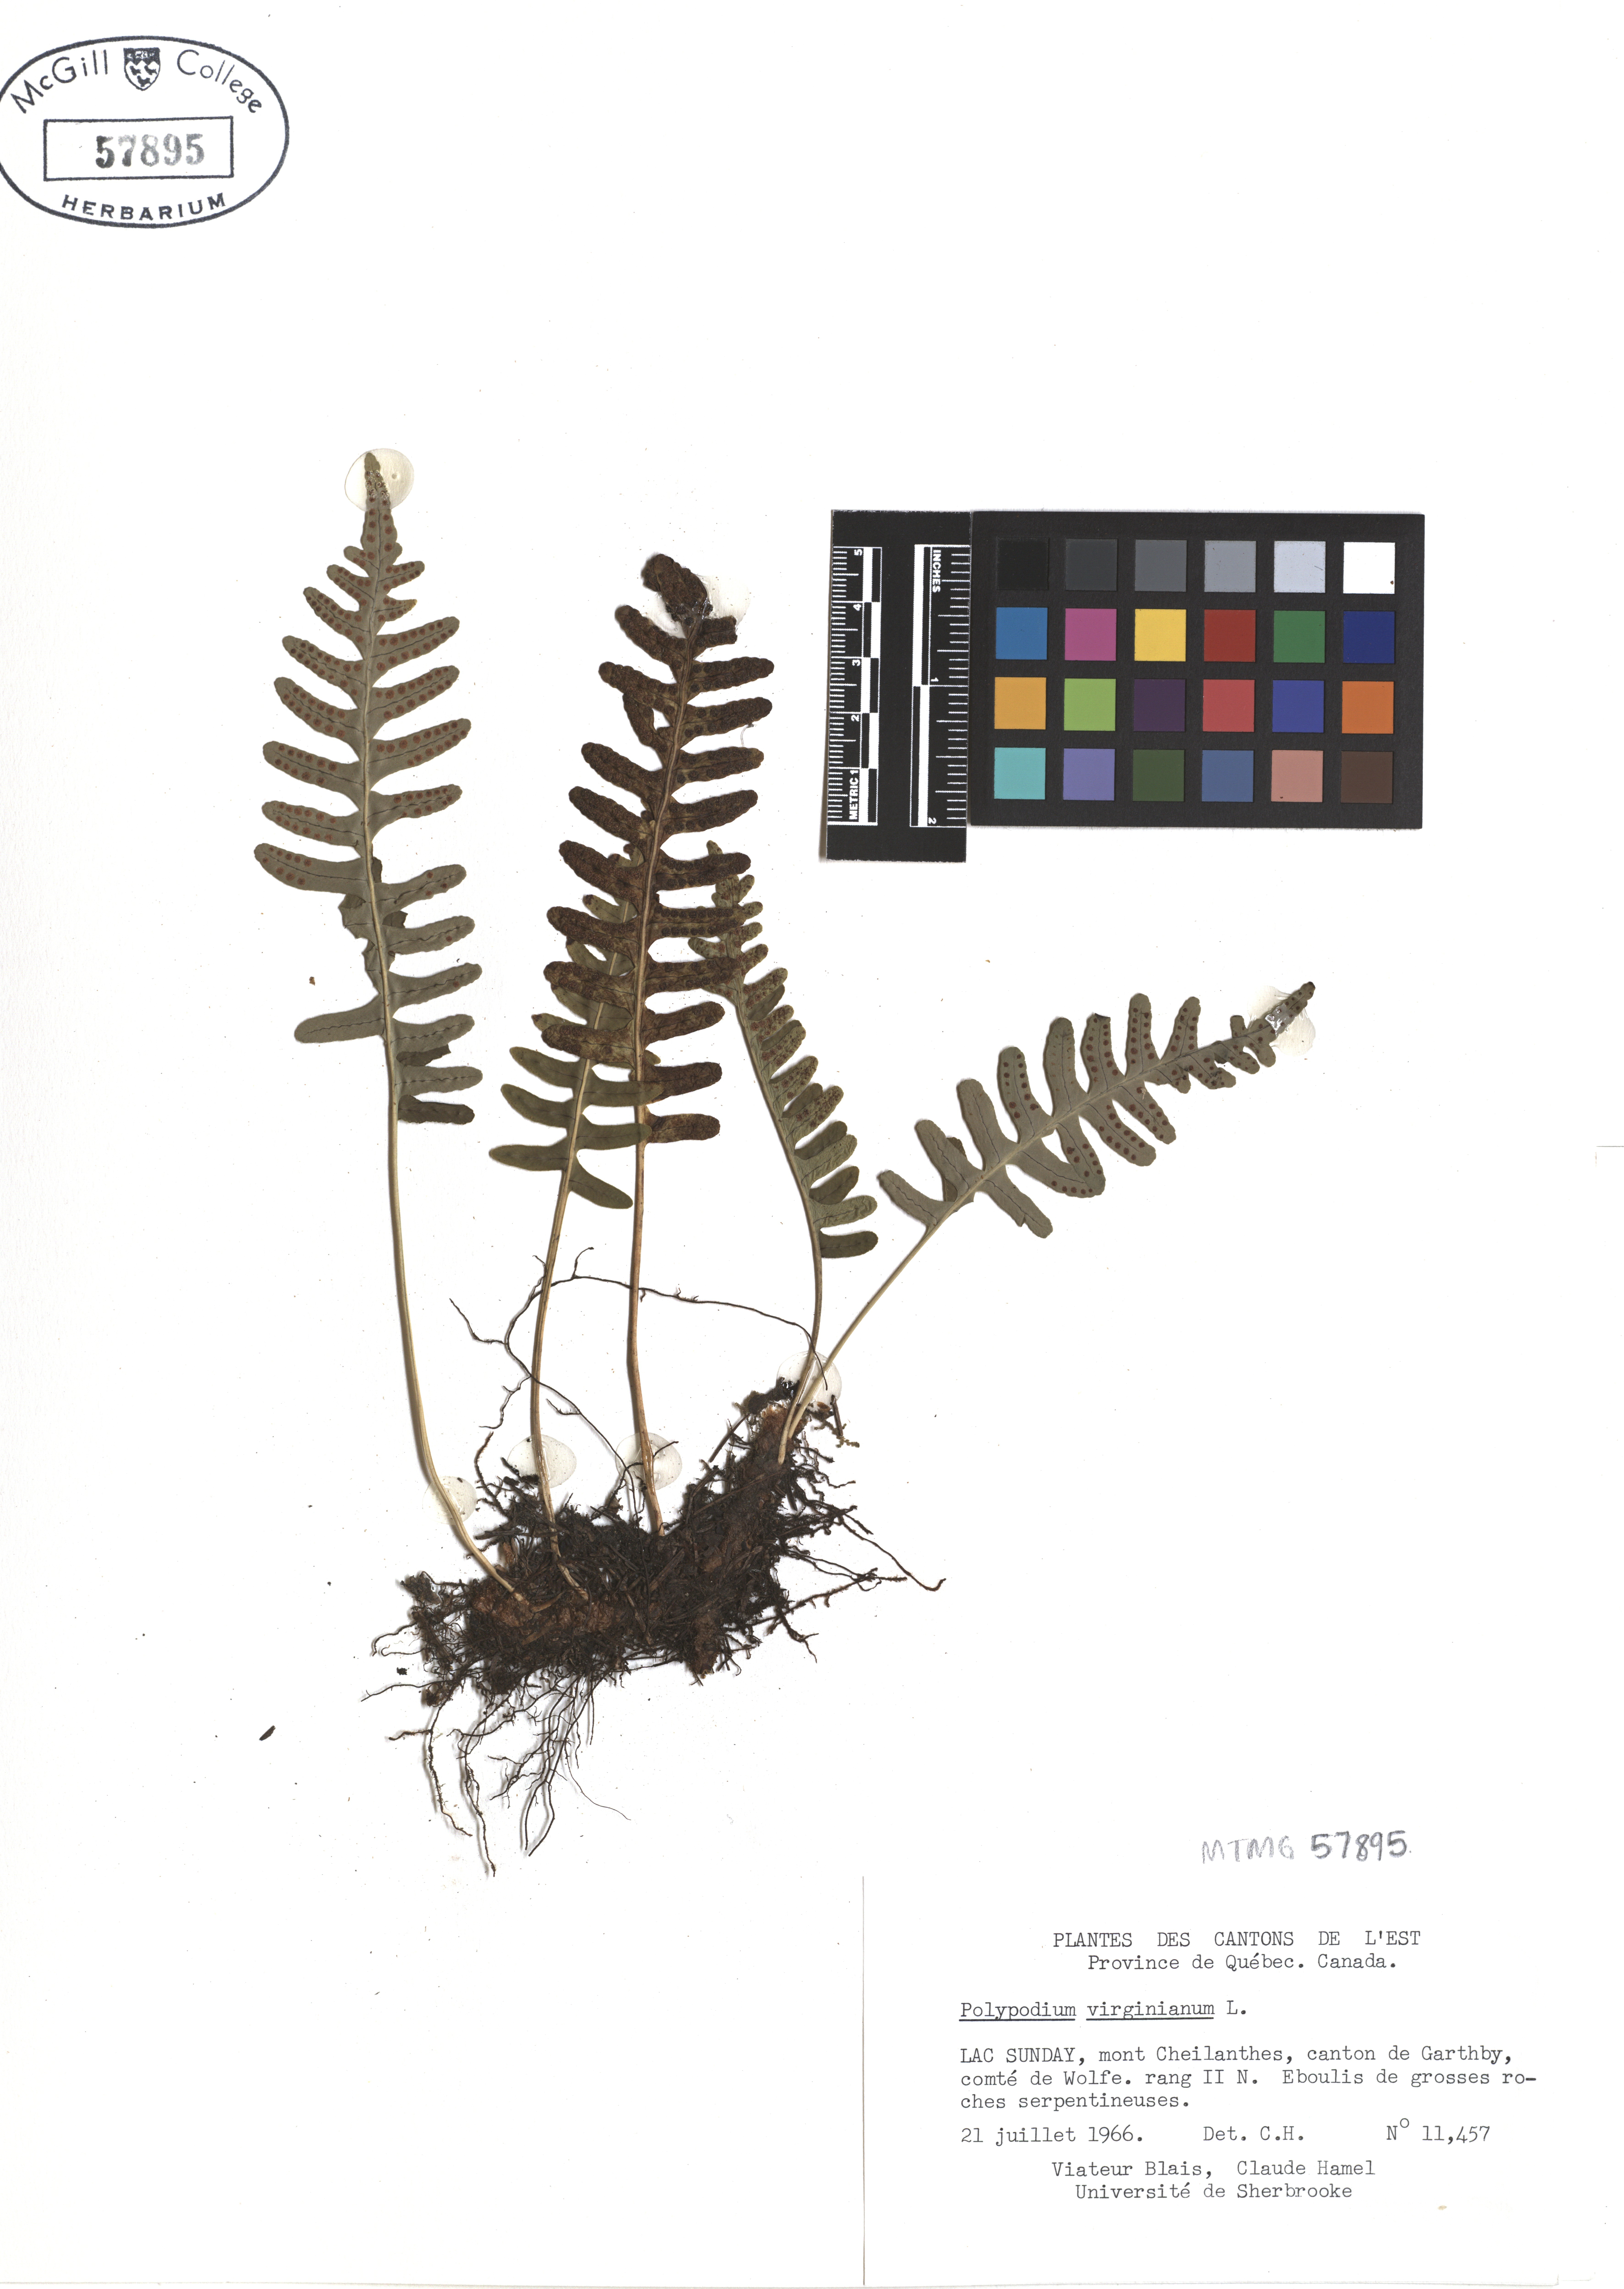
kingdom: Plantae
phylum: Tracheophyta
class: Polypodiopsida
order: Polypodiales
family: Polypodiaceae
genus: Polypodium
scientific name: Polypodium virginianum
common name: American wall fern
